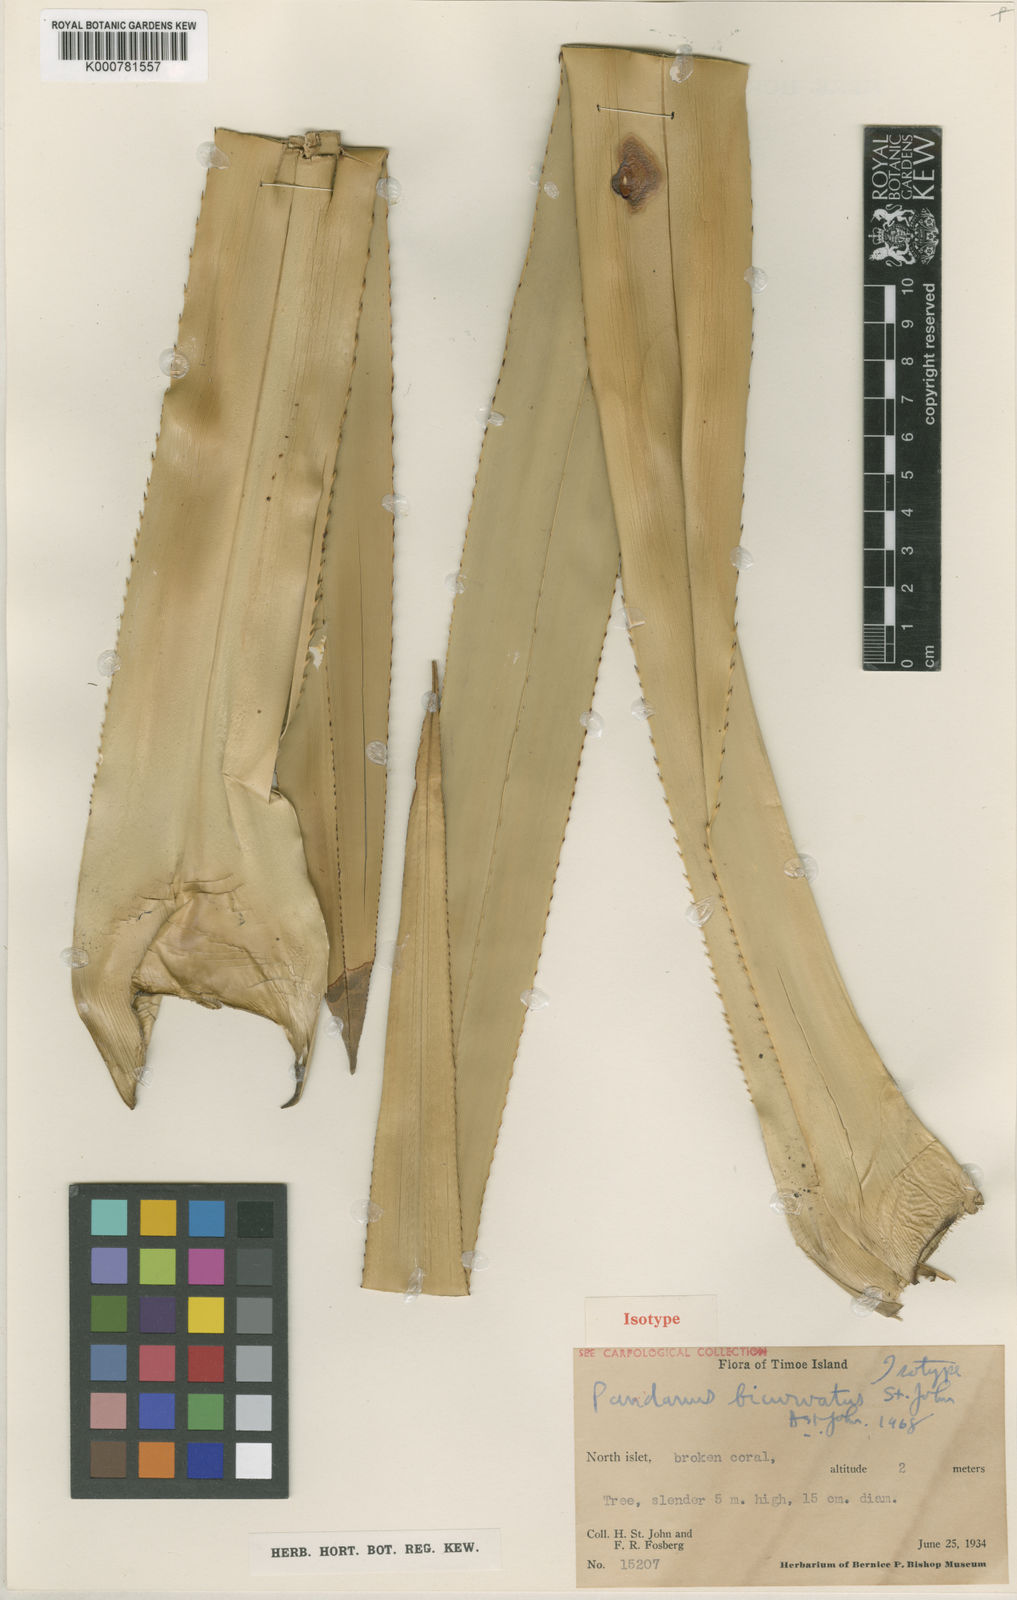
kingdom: Plantae
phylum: Tracheophyta
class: Liliopsida
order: Pandanales
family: Pandanaceae
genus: Pandanus
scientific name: Pandanus tectorius
